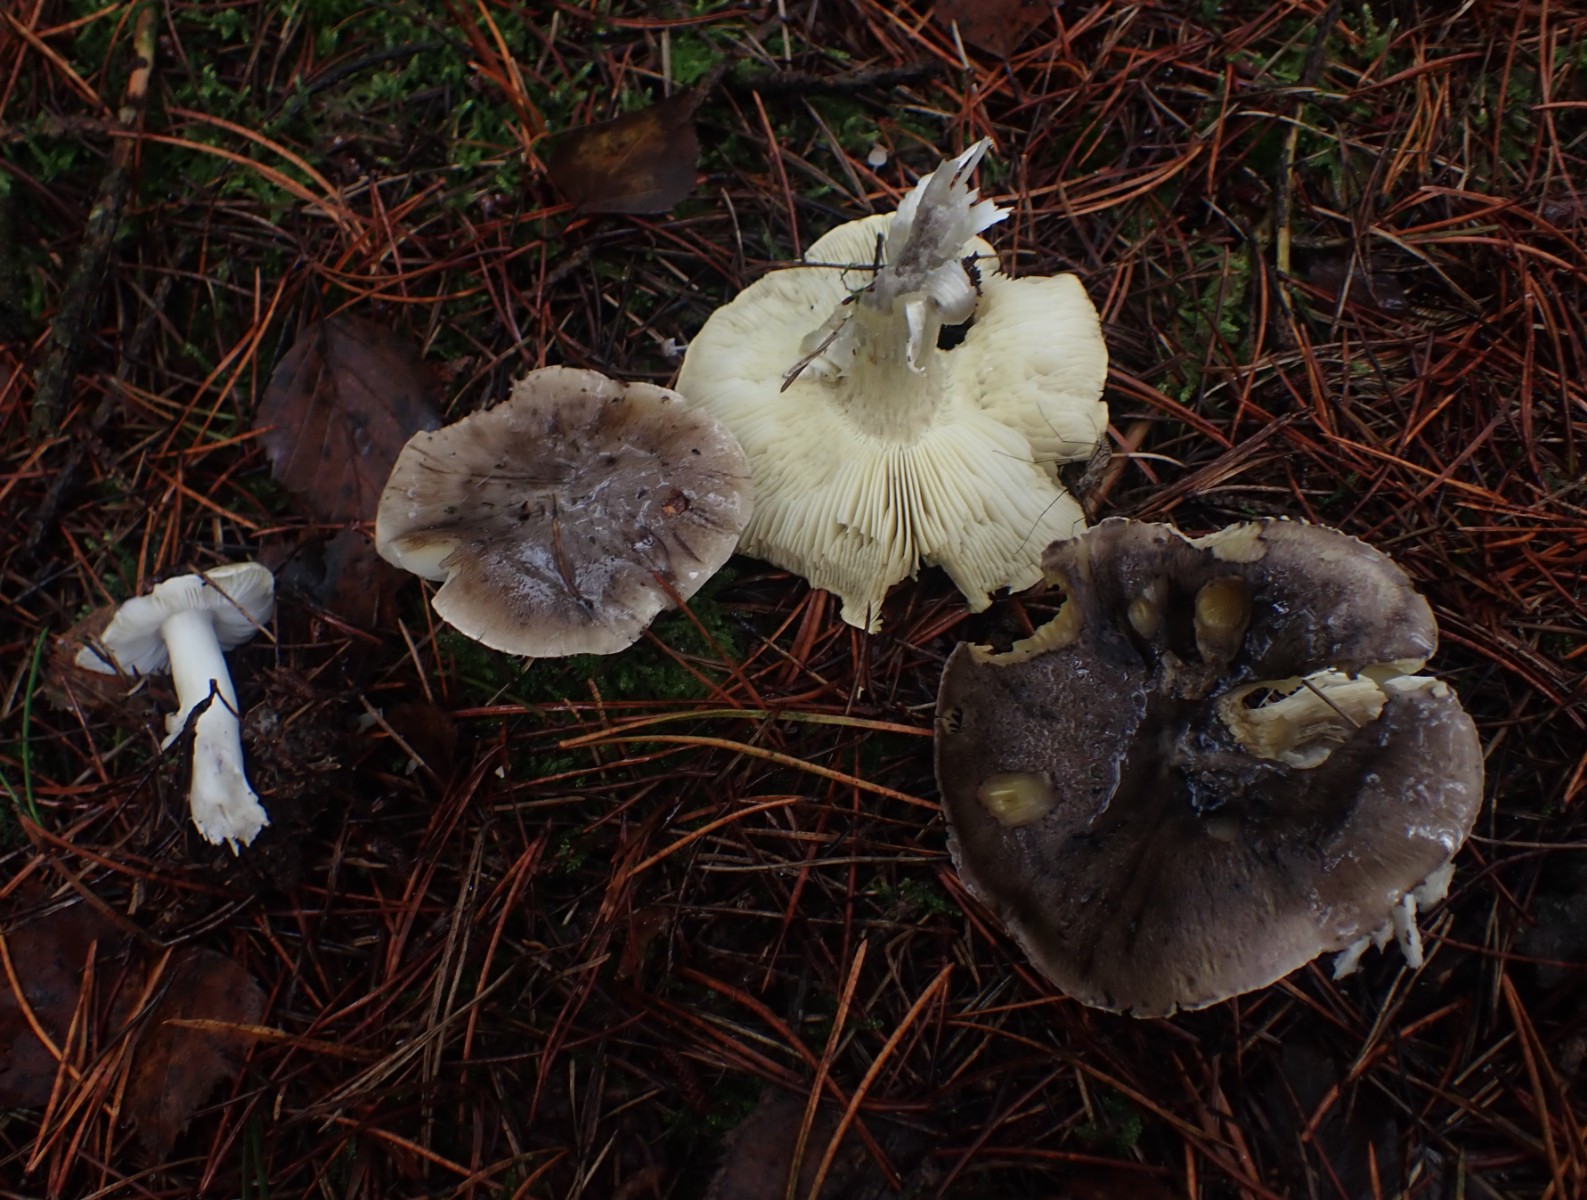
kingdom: Fungi
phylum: Basidiomycota
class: Agaricomycetes
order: Agaricales
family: Tricholomataceae
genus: Tricholoma
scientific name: Tricholoma portentosum
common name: grå ridderhat
